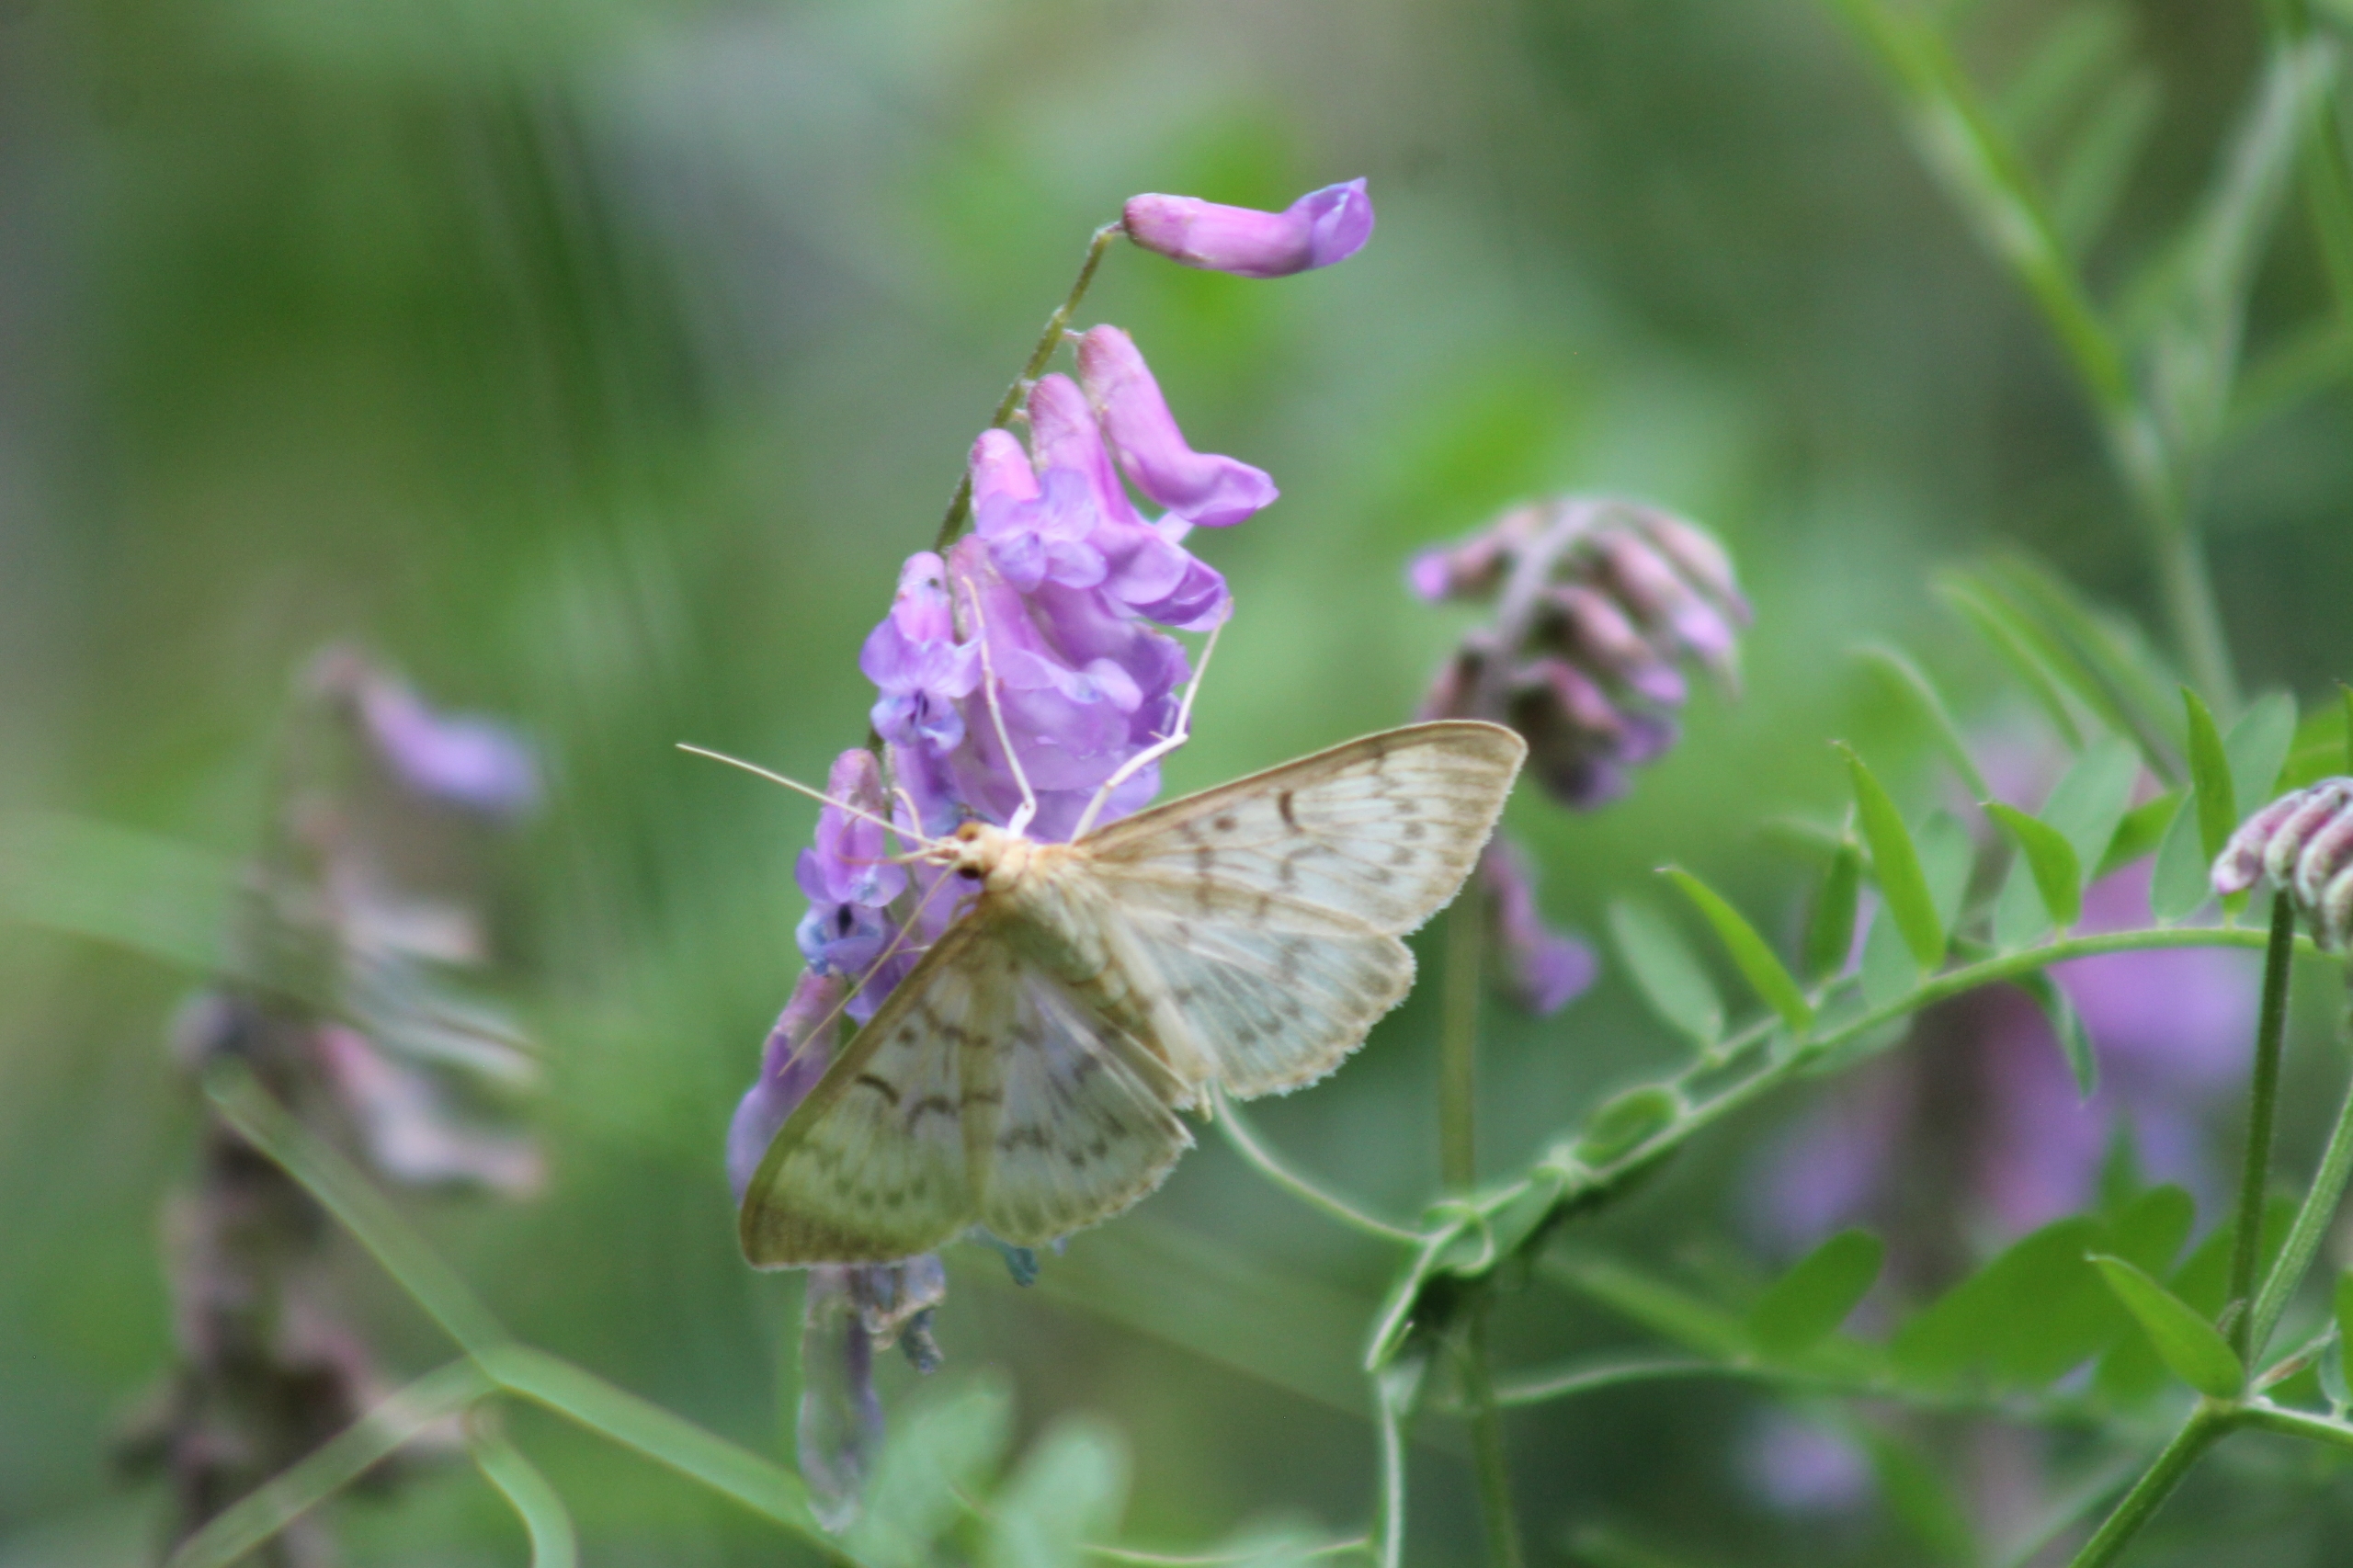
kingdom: Animalia
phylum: Arthropoda
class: Insecta
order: Lepidoptera
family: Crambidae
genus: Patania
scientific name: Patania ruralis
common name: Perlemorshalvmøl
